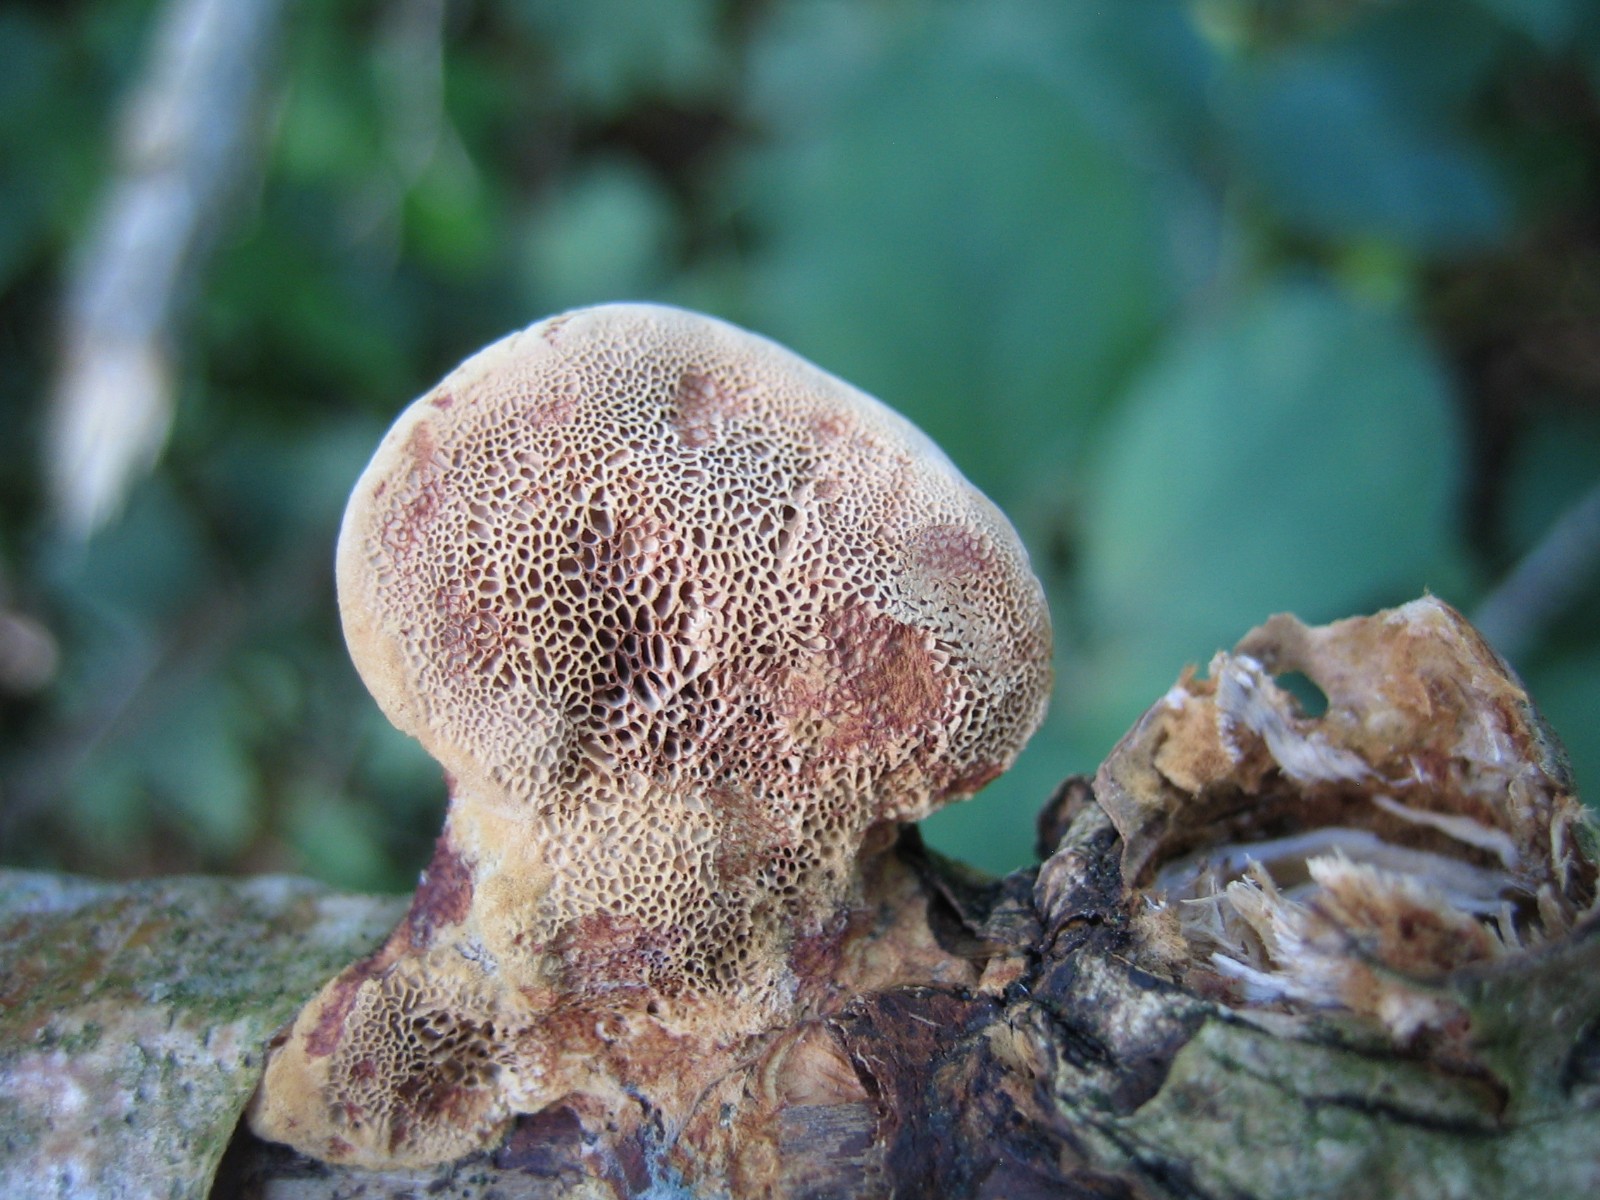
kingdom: Fungi
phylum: Basidiomycota
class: Agaricomycetes
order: Polyporales
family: Phanerochaetaceae
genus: Hapalopilus
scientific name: Hapalopilus rutilans
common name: rødlig okkerporesvamp
